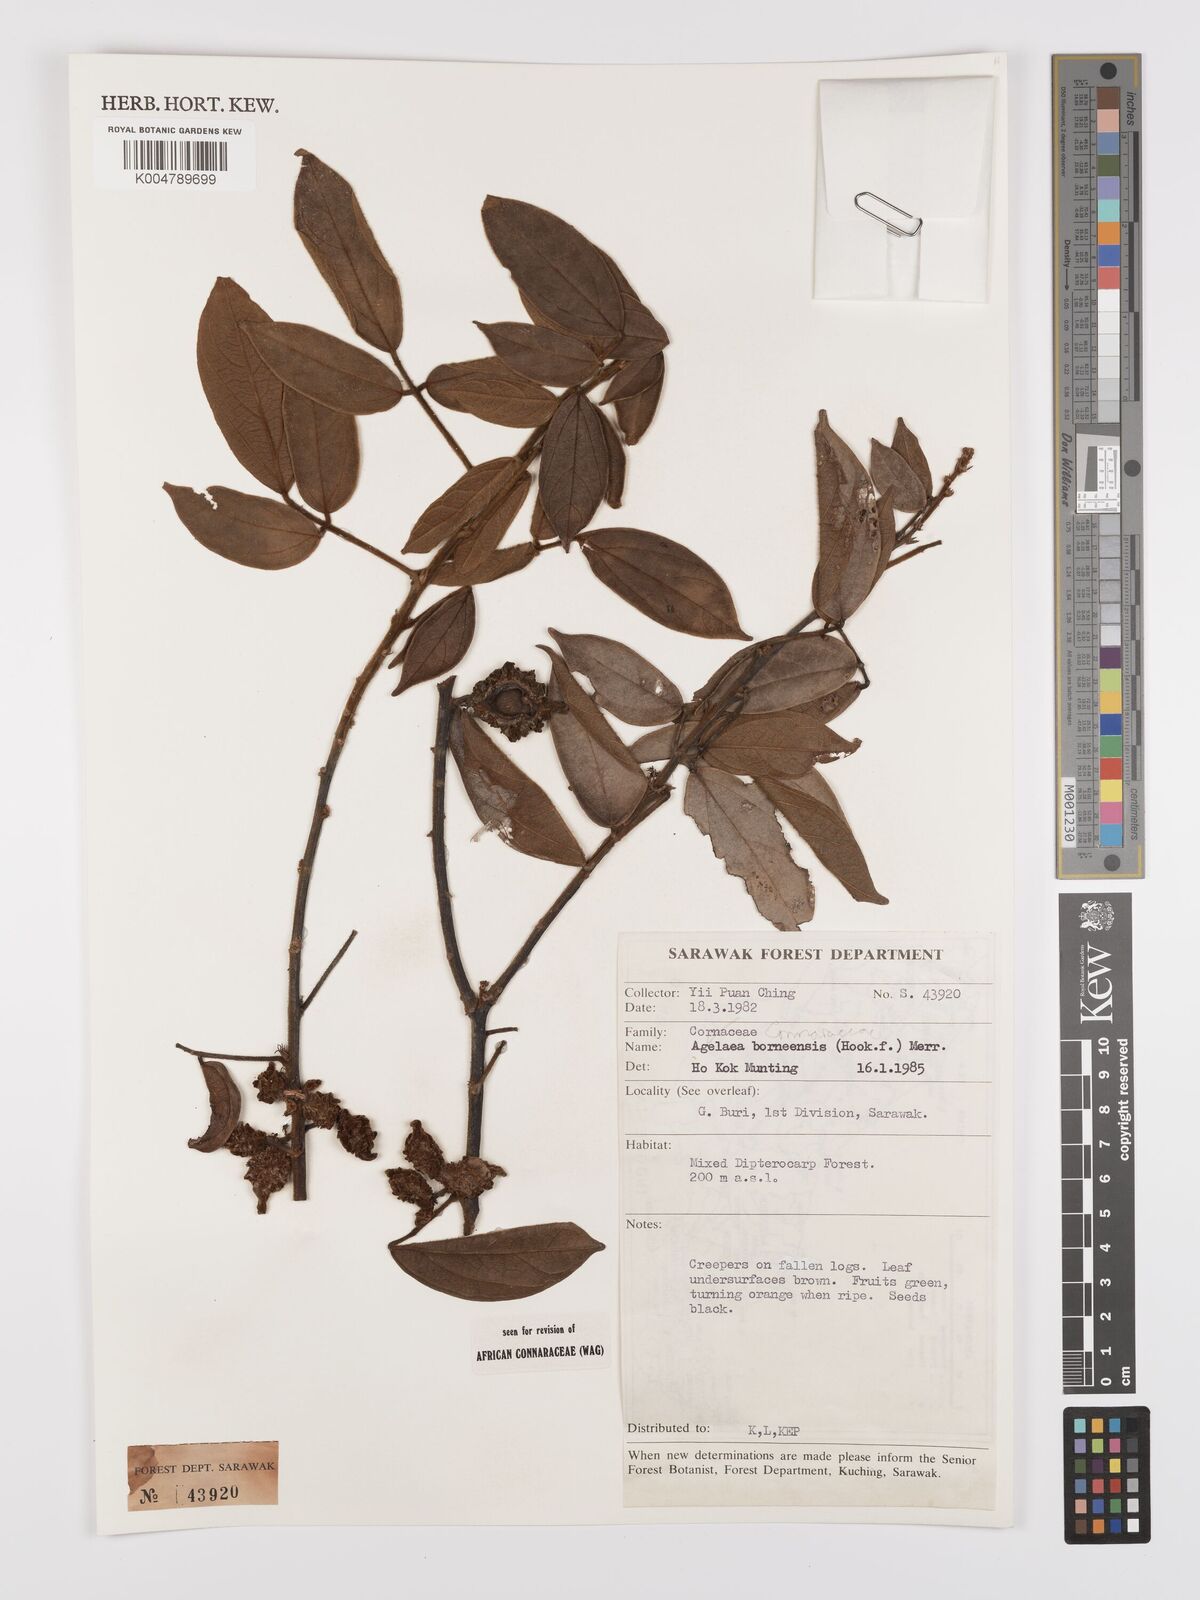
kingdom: Plantae
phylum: Tracheophyta
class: Magnoliopsida
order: Oxalidales
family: Connaraceae
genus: Agelaea
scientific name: Agelaea borneensis
